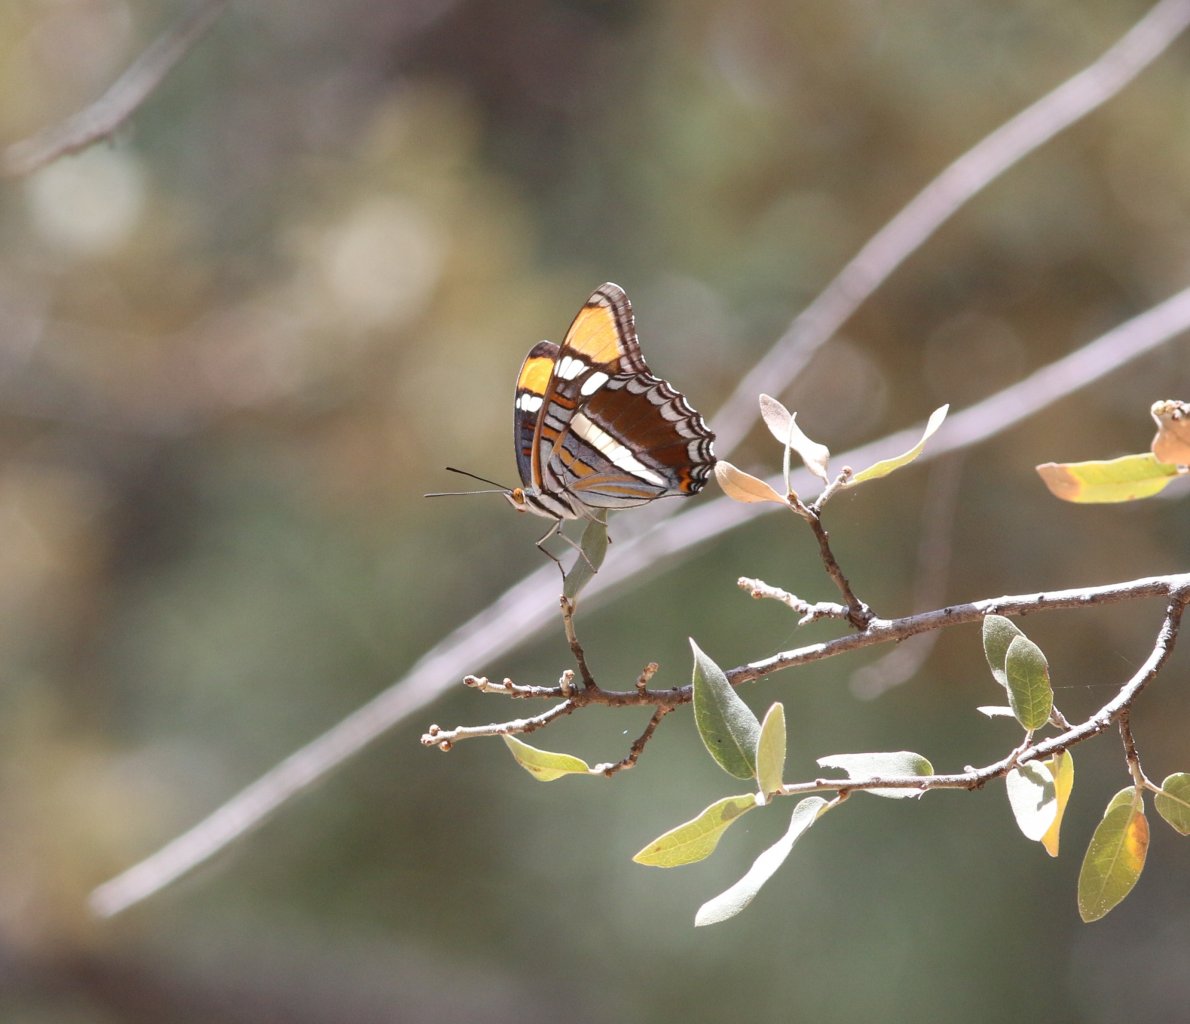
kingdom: Animalia
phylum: Arthropoda
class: Insecta
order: Lepidoptera
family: Nymphalidae
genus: Limenitis
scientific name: Limenitis bredowii
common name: Arizona Sister
